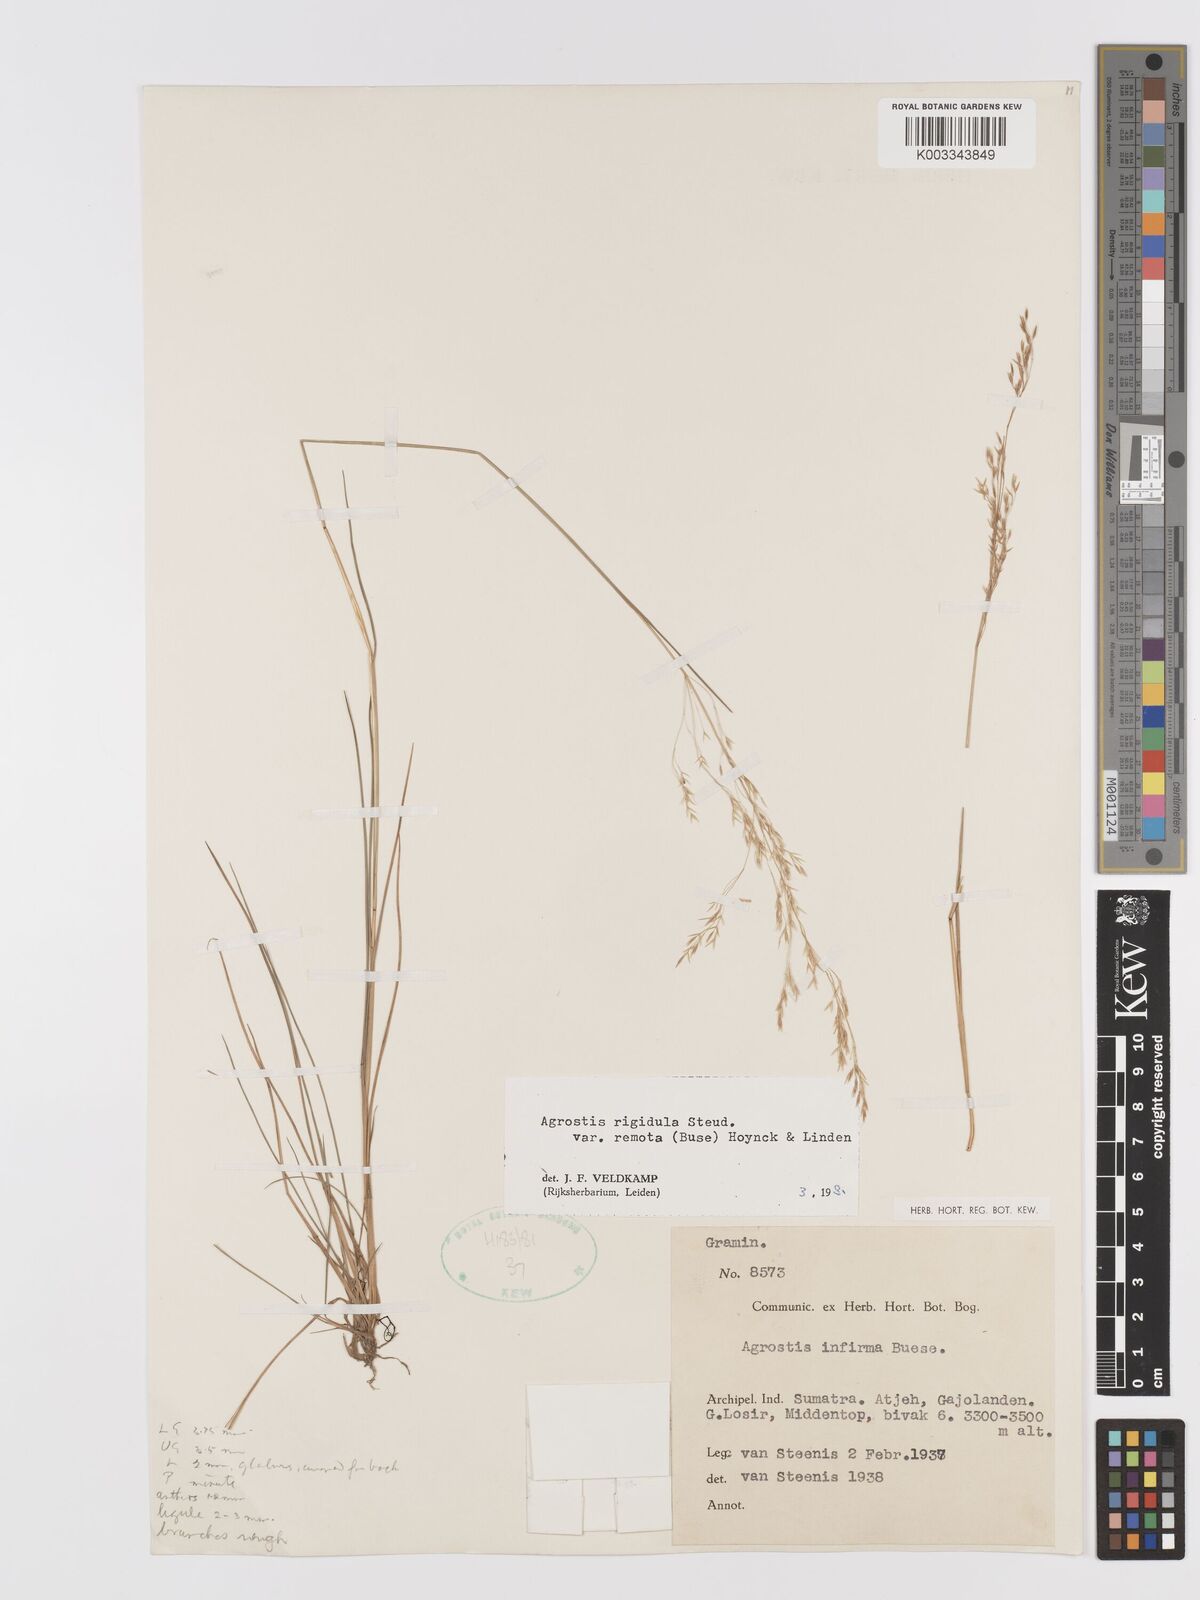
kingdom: Plantae
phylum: Tracheophyta
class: Liliopsida
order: Poales
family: Poaceae
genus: Agrostis
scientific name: Agrostis infirma
